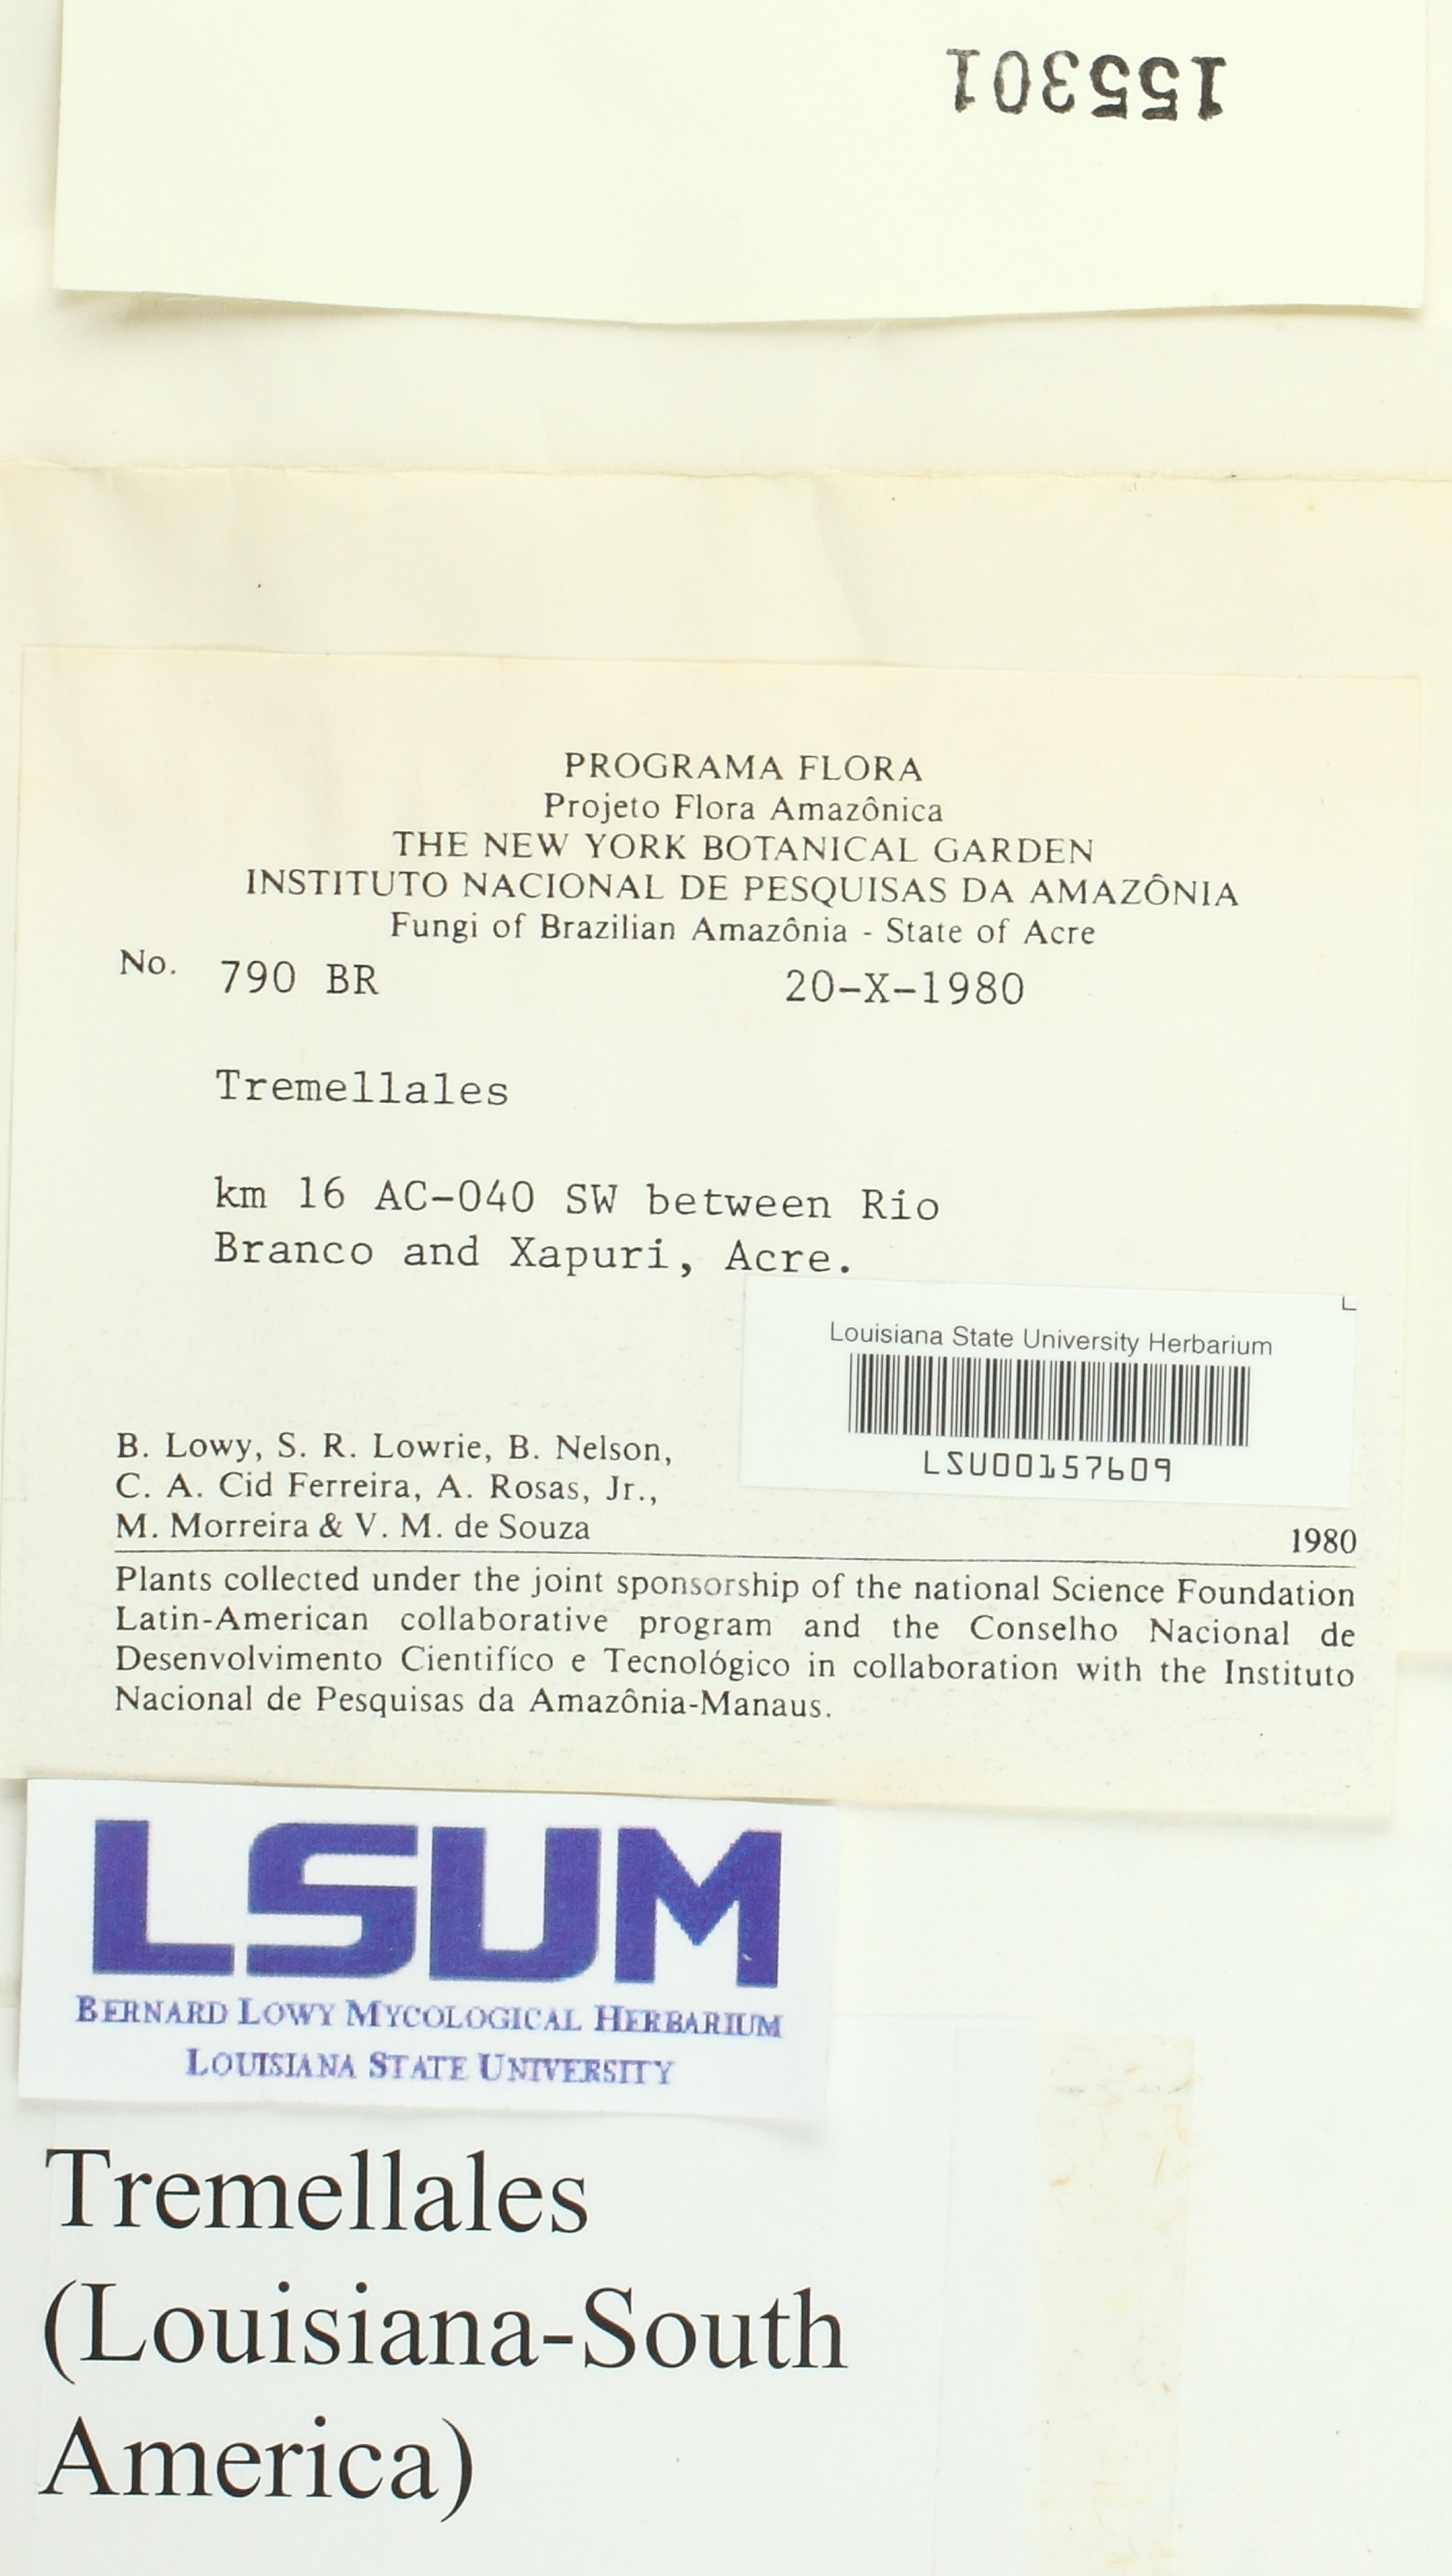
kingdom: Fungi
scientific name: Fungi
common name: Fungi
